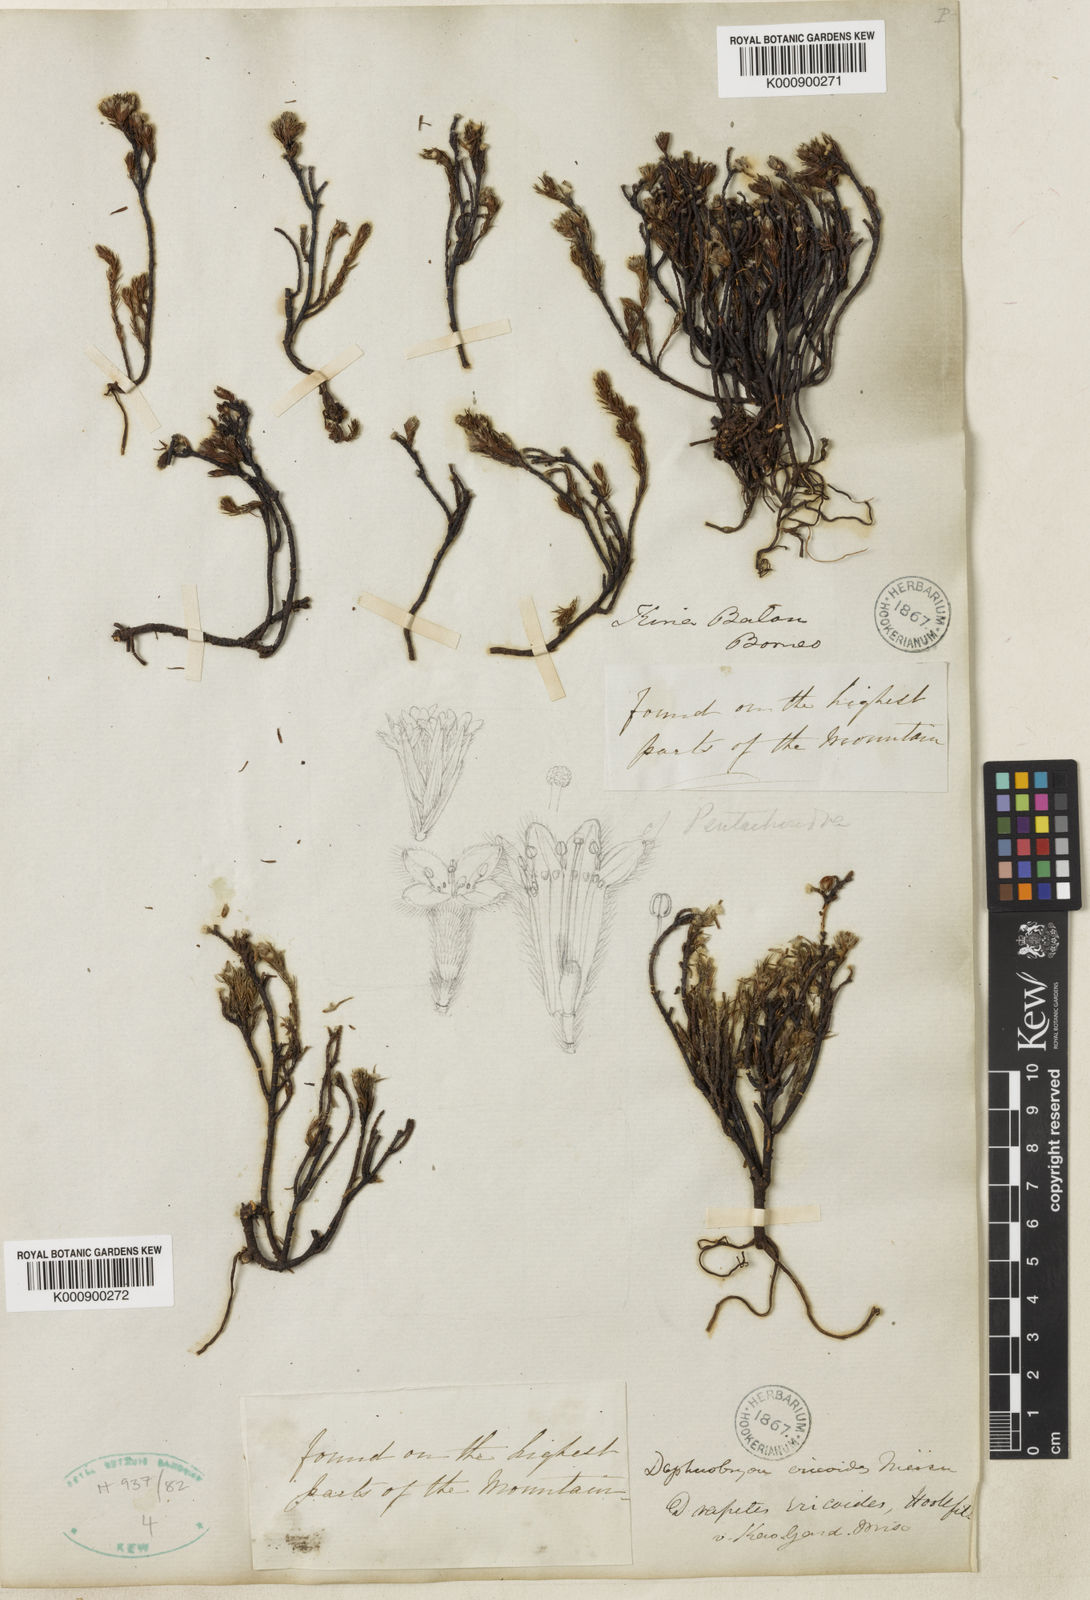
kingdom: Plantae
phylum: Tracheophyta
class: Magnoliopsida
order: Malvales
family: Thymelaeaceae
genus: Kelleria
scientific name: Kelleria ericoides
